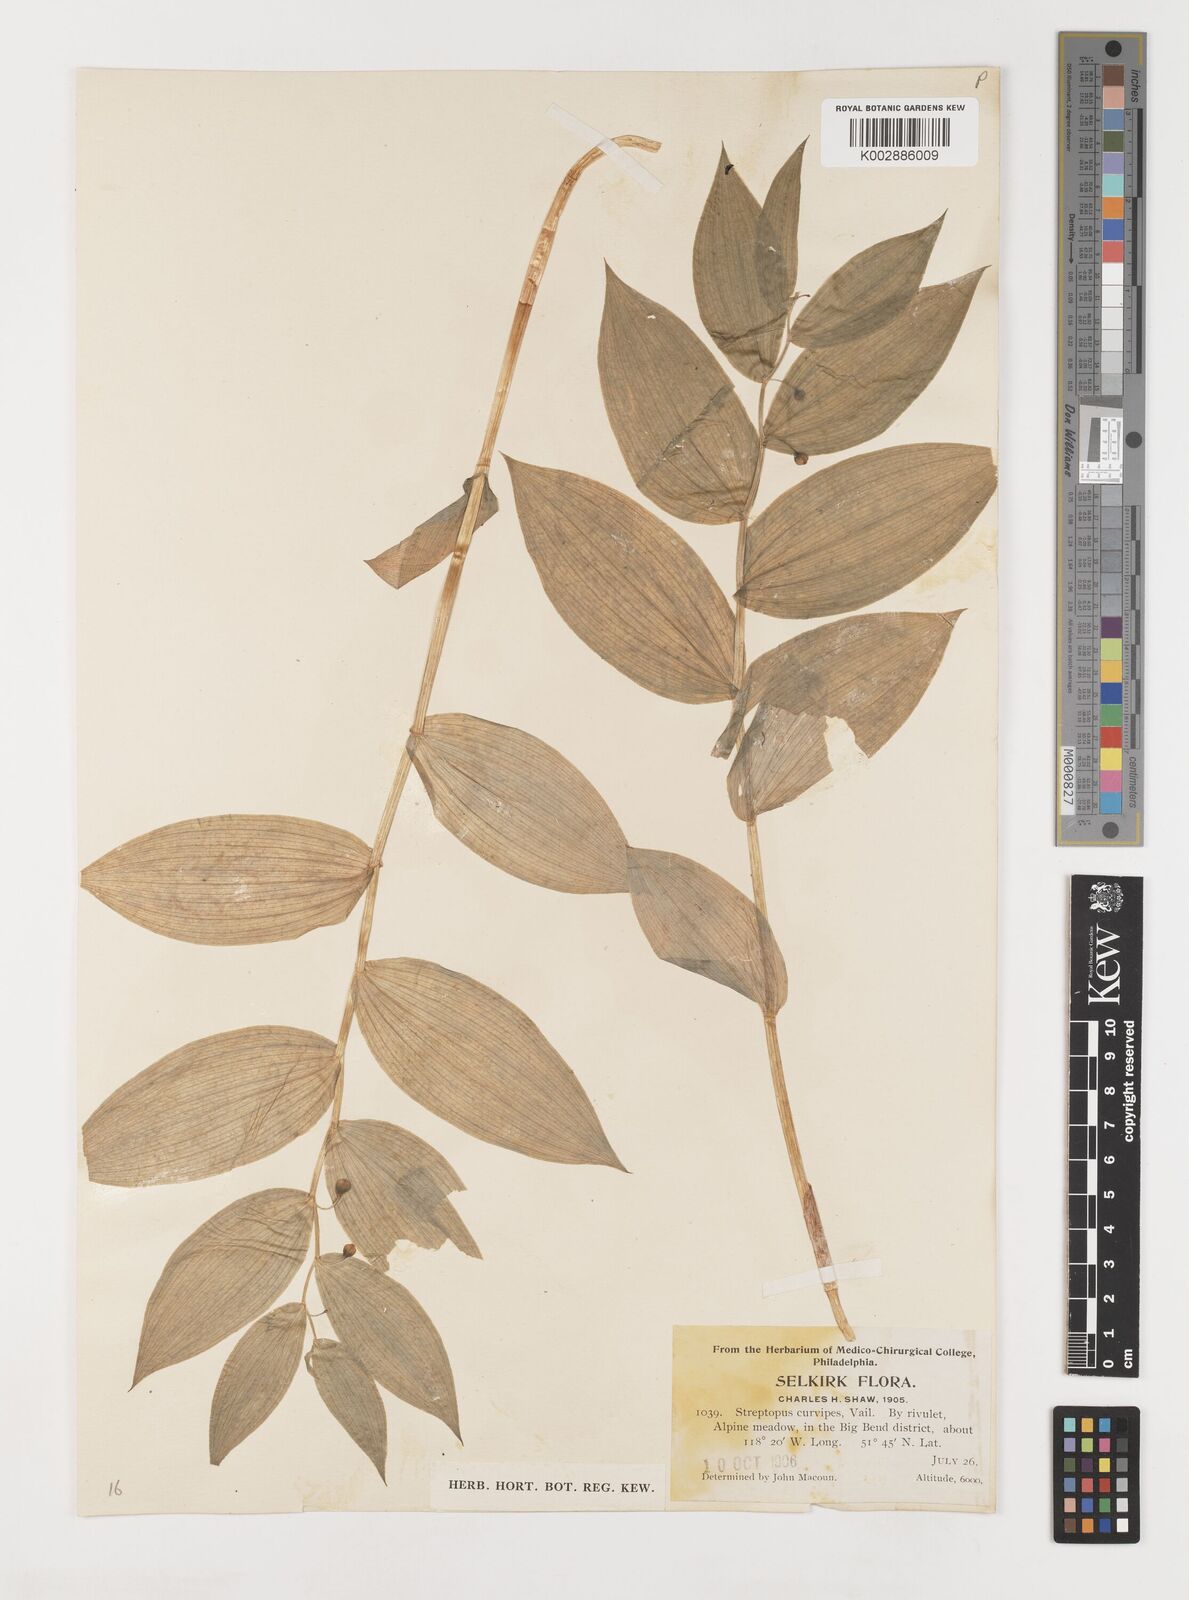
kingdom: Plantae
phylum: Tracheophyta
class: Liliopsida
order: Liliales
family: Liliaceae
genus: Streptopus
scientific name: Streptopus lanceolatus
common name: Rose mandarin
